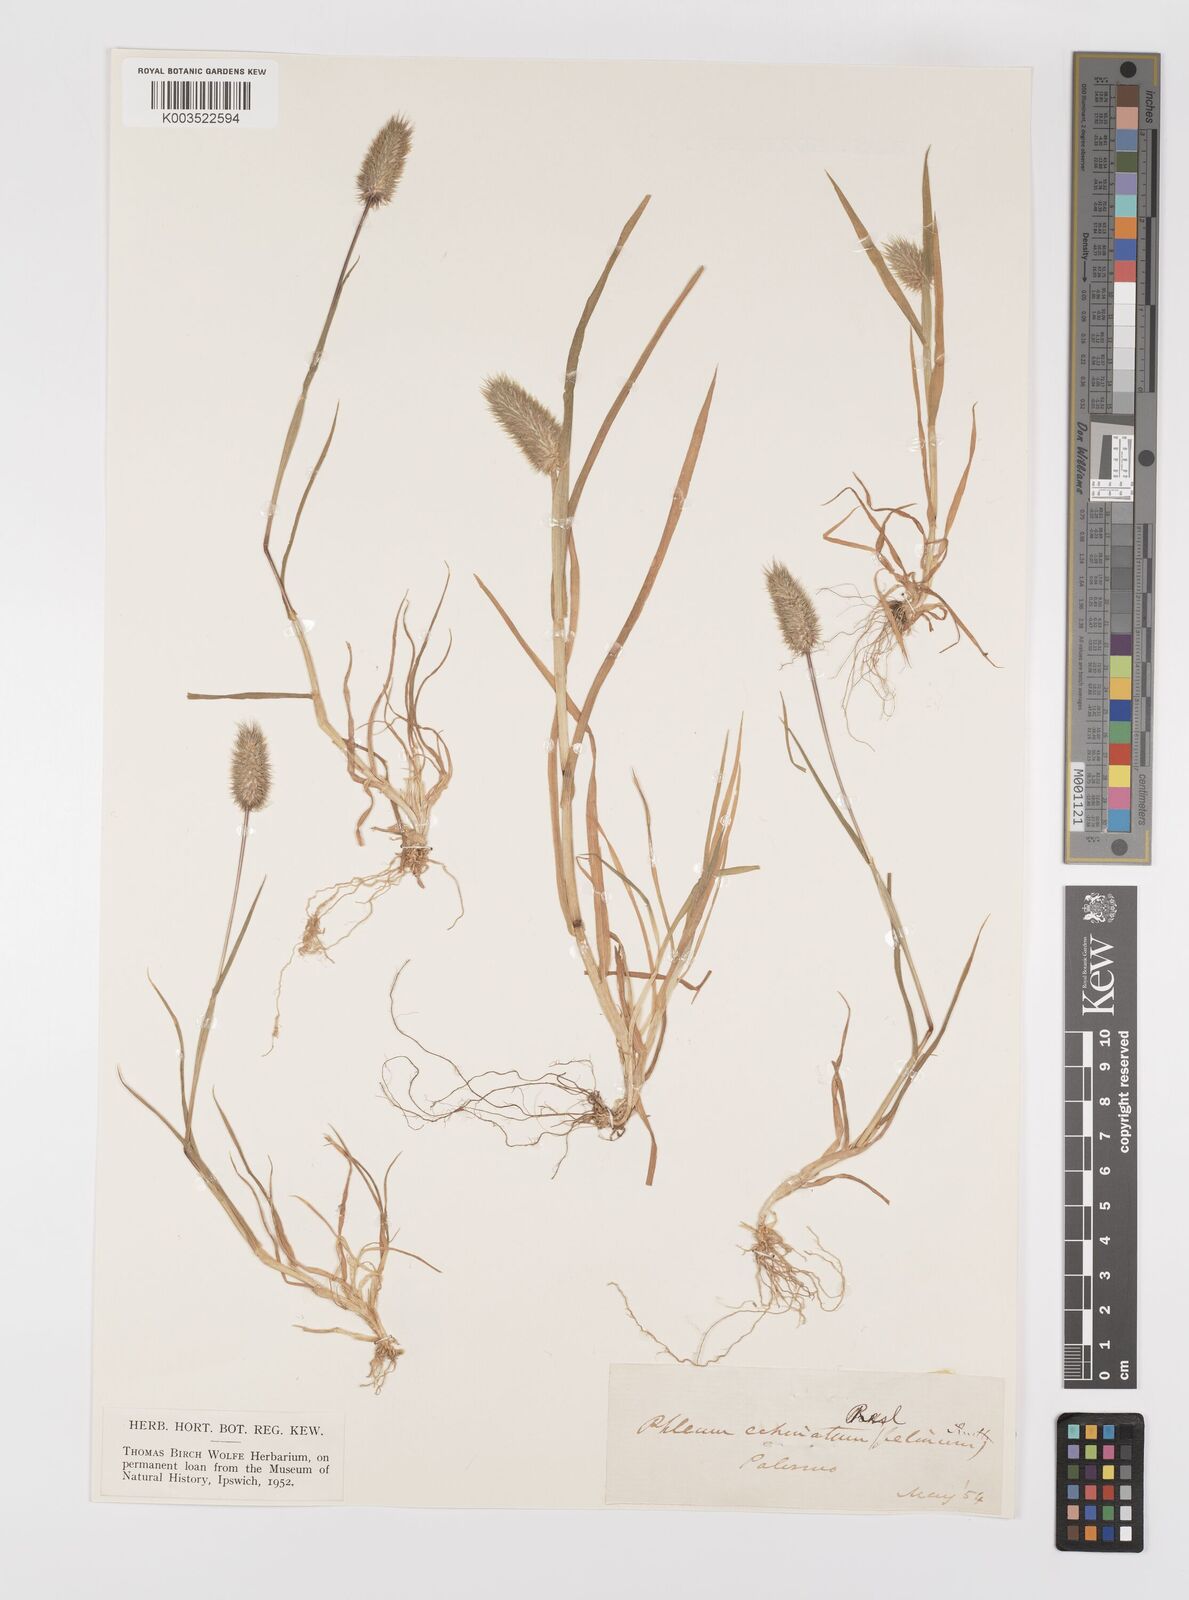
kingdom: Plantae
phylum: Tracheophyta
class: Liliopsida
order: Poales
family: Poaceae
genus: Phleum
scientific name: Phleum echinatum
